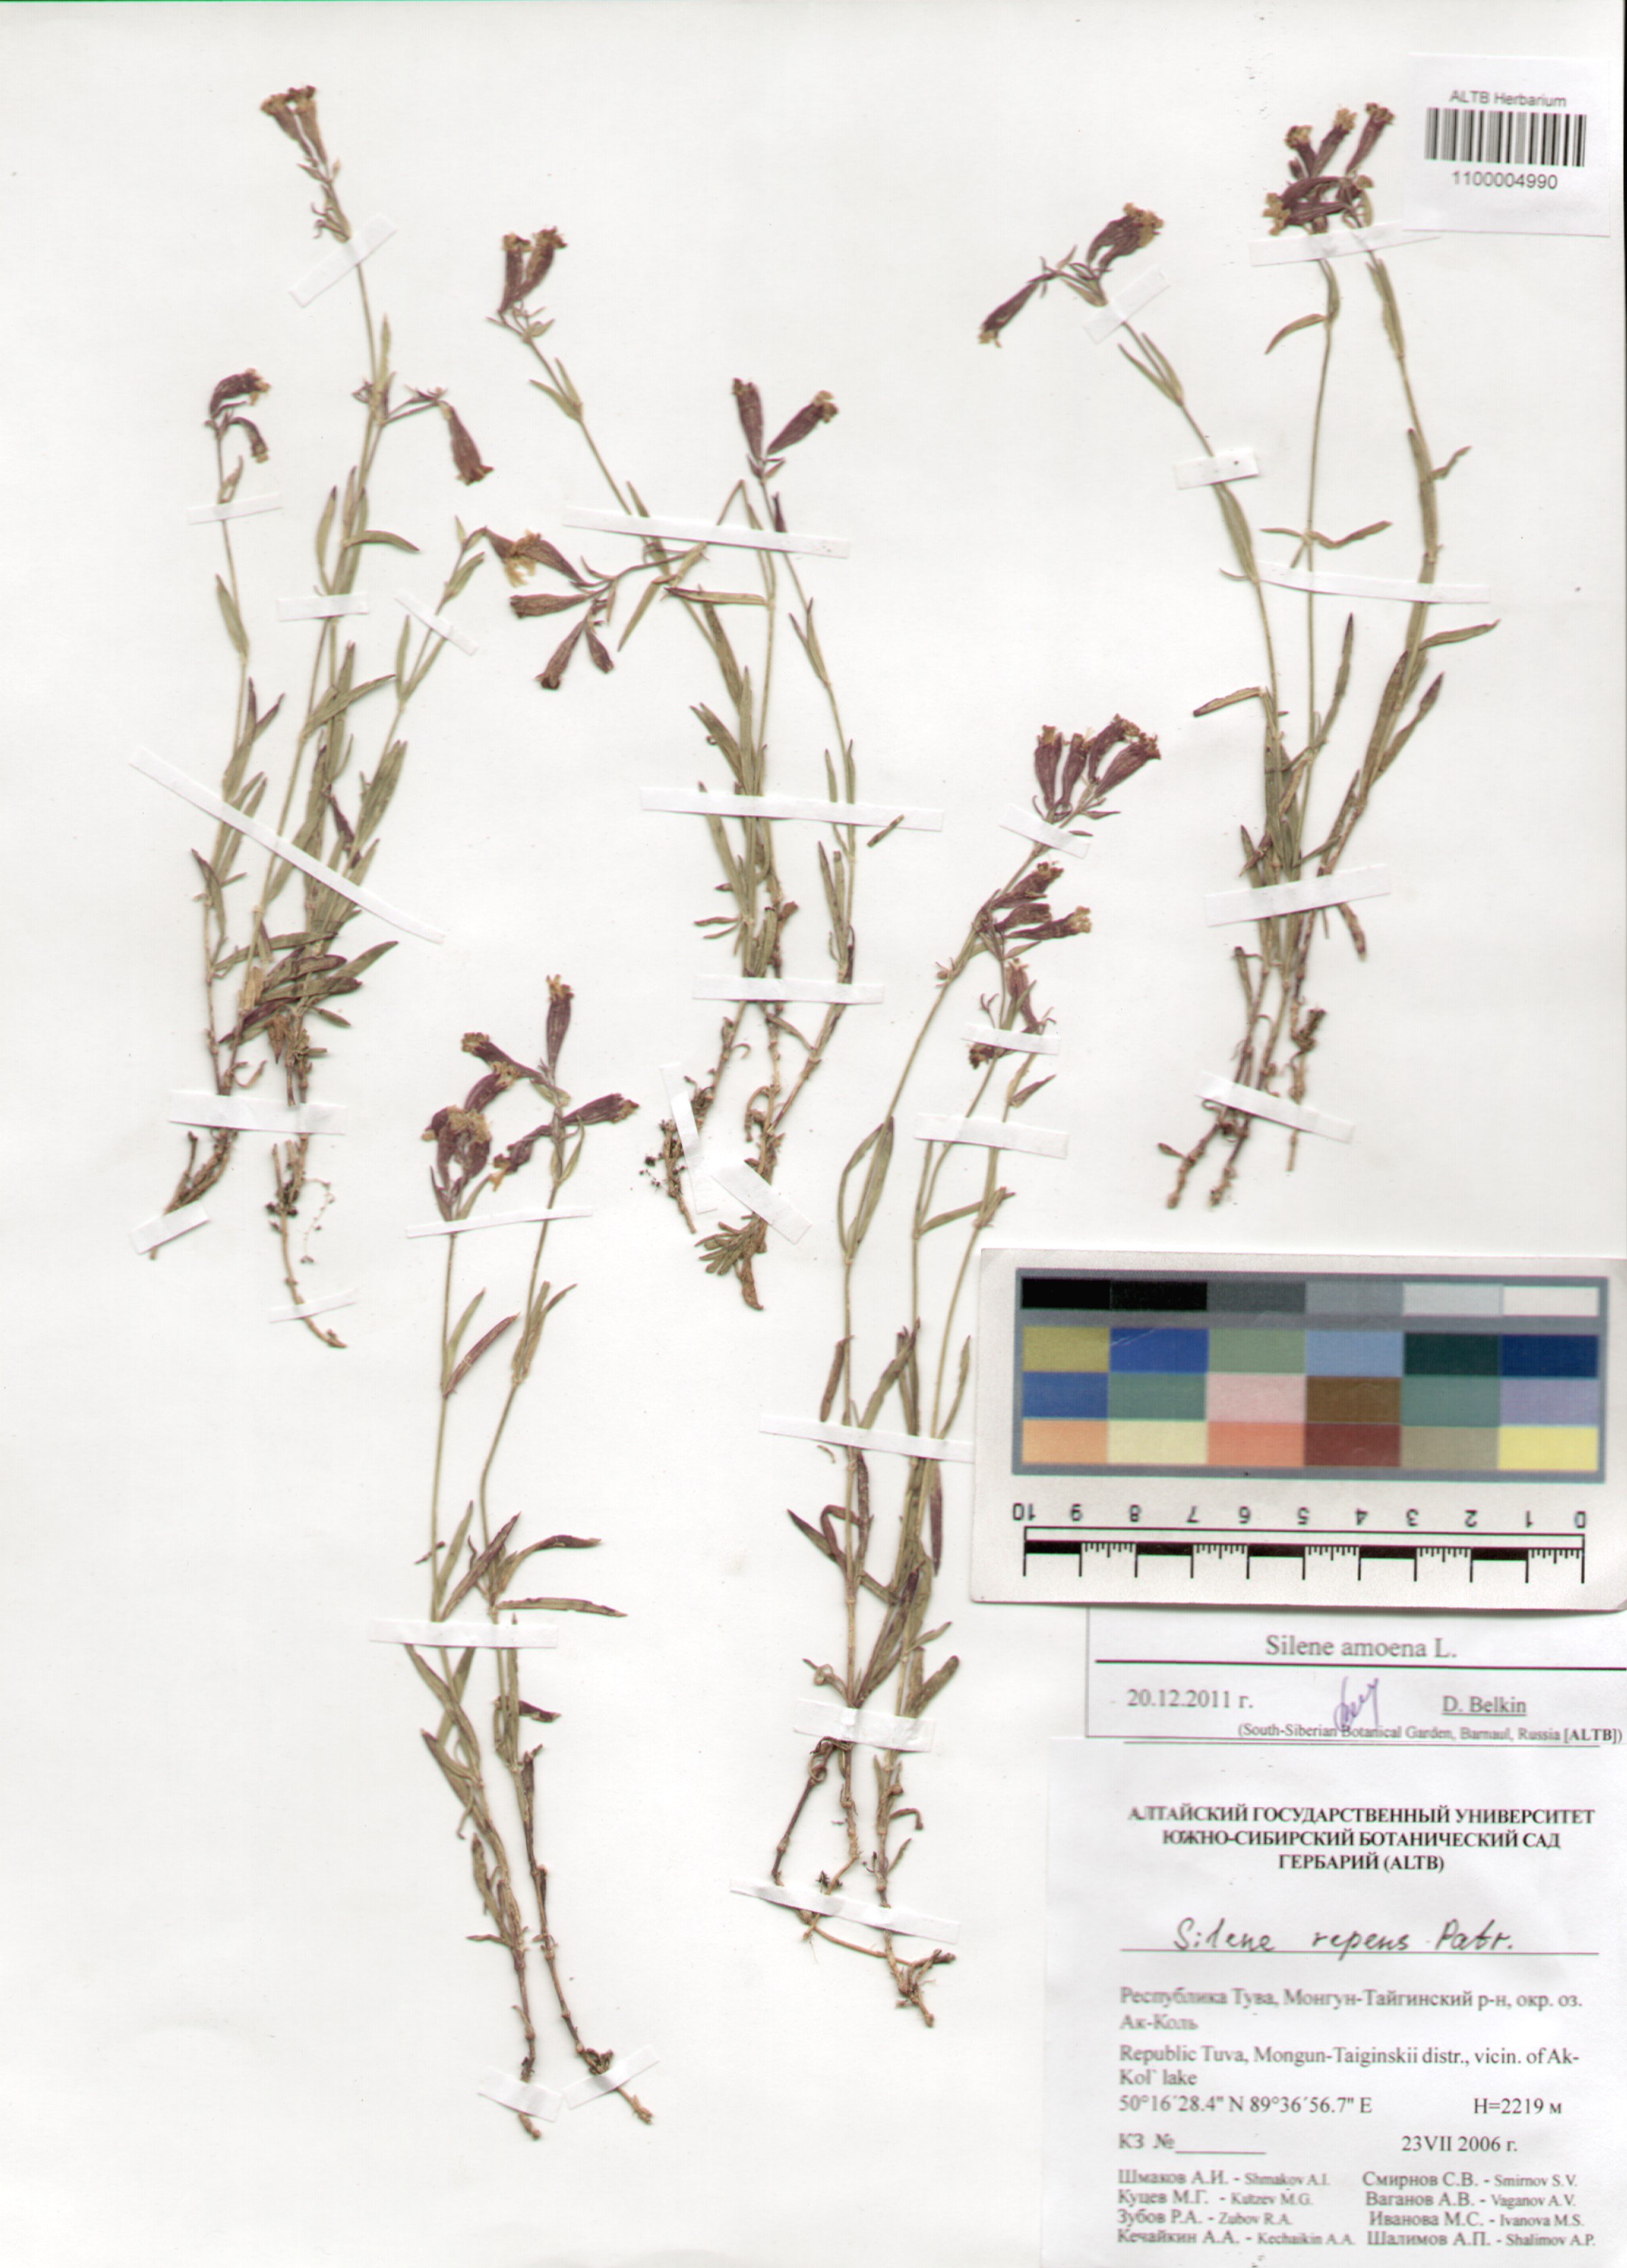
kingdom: Plantae
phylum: Tracheophyta
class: Magnoliopsida
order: Caryophyllales
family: Caryophyllaceae
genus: Silene
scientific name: Silene amoena
